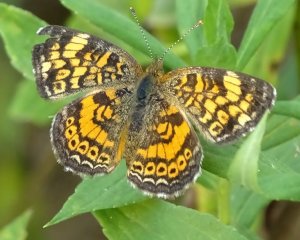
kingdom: Animalia
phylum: Arthropoda
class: Insecta
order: Lepidoptera
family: Nymphalidae
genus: Phyciodes
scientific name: Phyciodes tharos
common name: Pearl Crescent
